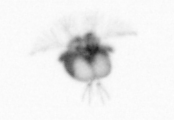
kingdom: Animalia
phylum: Arthropoda
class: Copepoda
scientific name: Copepoda
